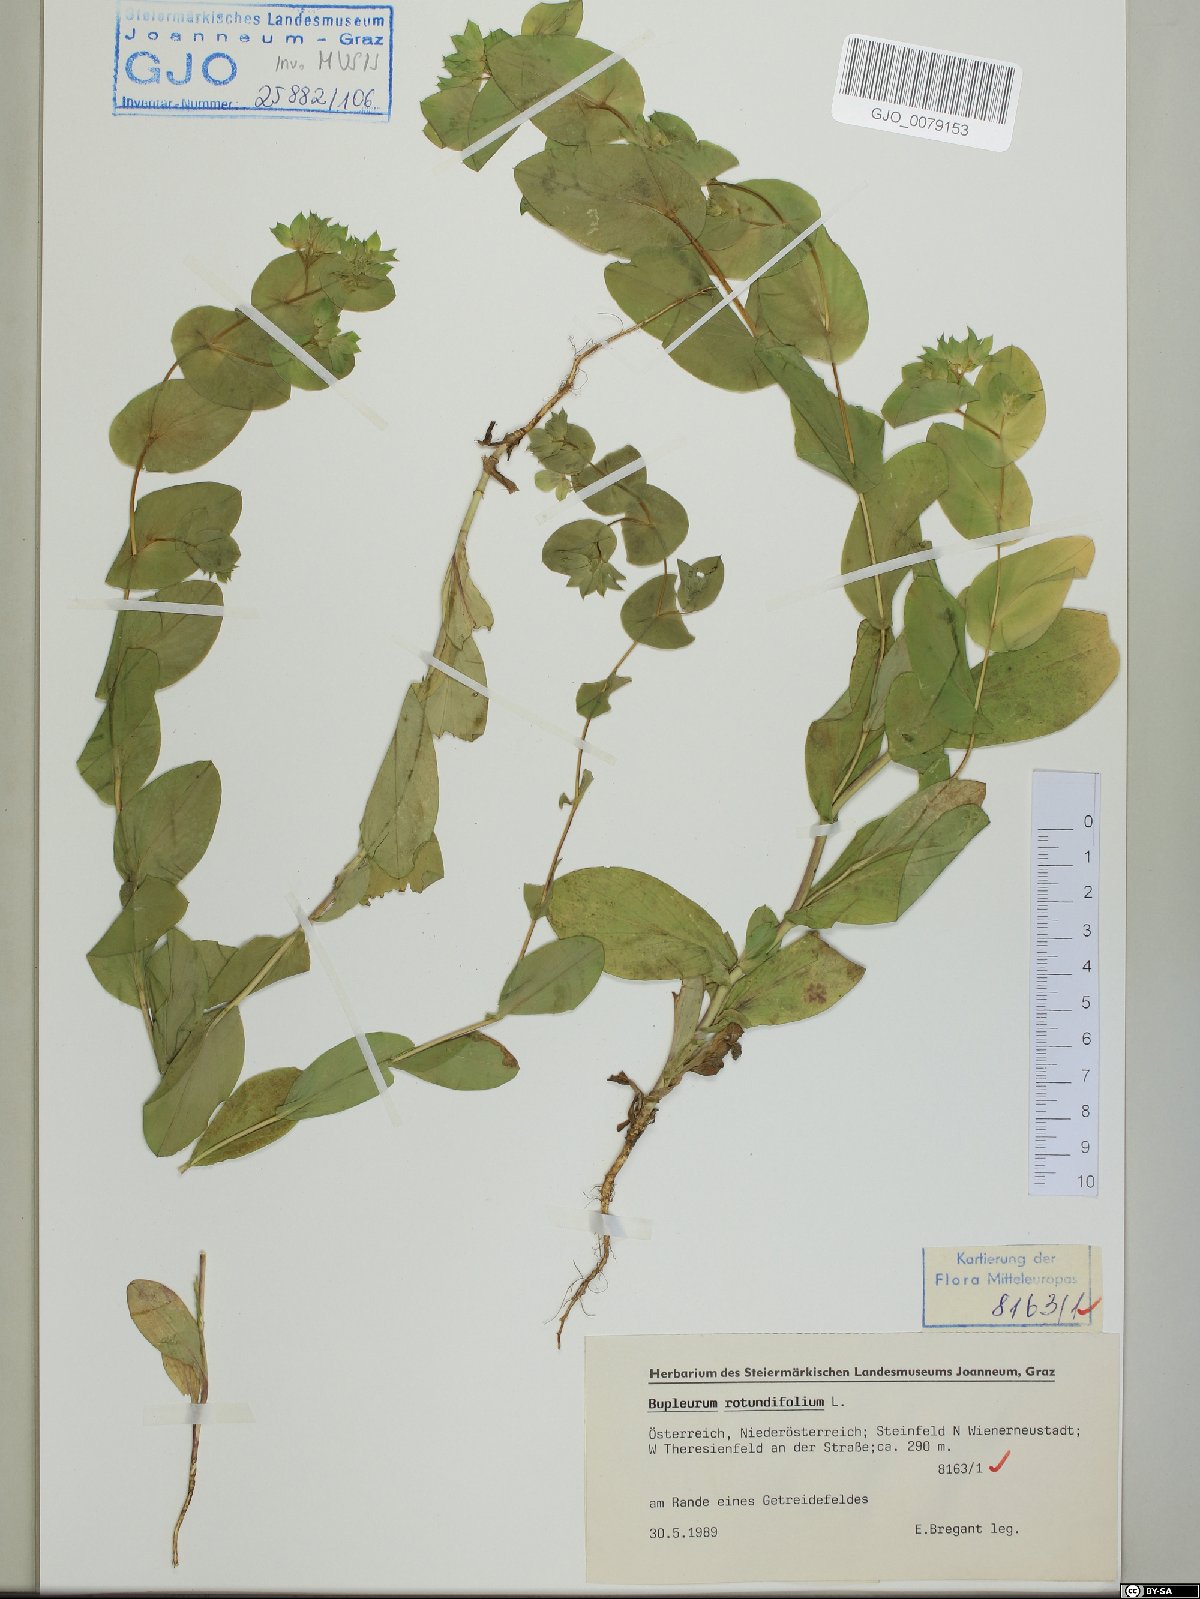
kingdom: Plantae
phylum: Tracheophyta
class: Magnoliopsida
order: Apiales
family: Apiaceae
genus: Bupleurum
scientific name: Bupleurum rotundifolium
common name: Thorow-wax
